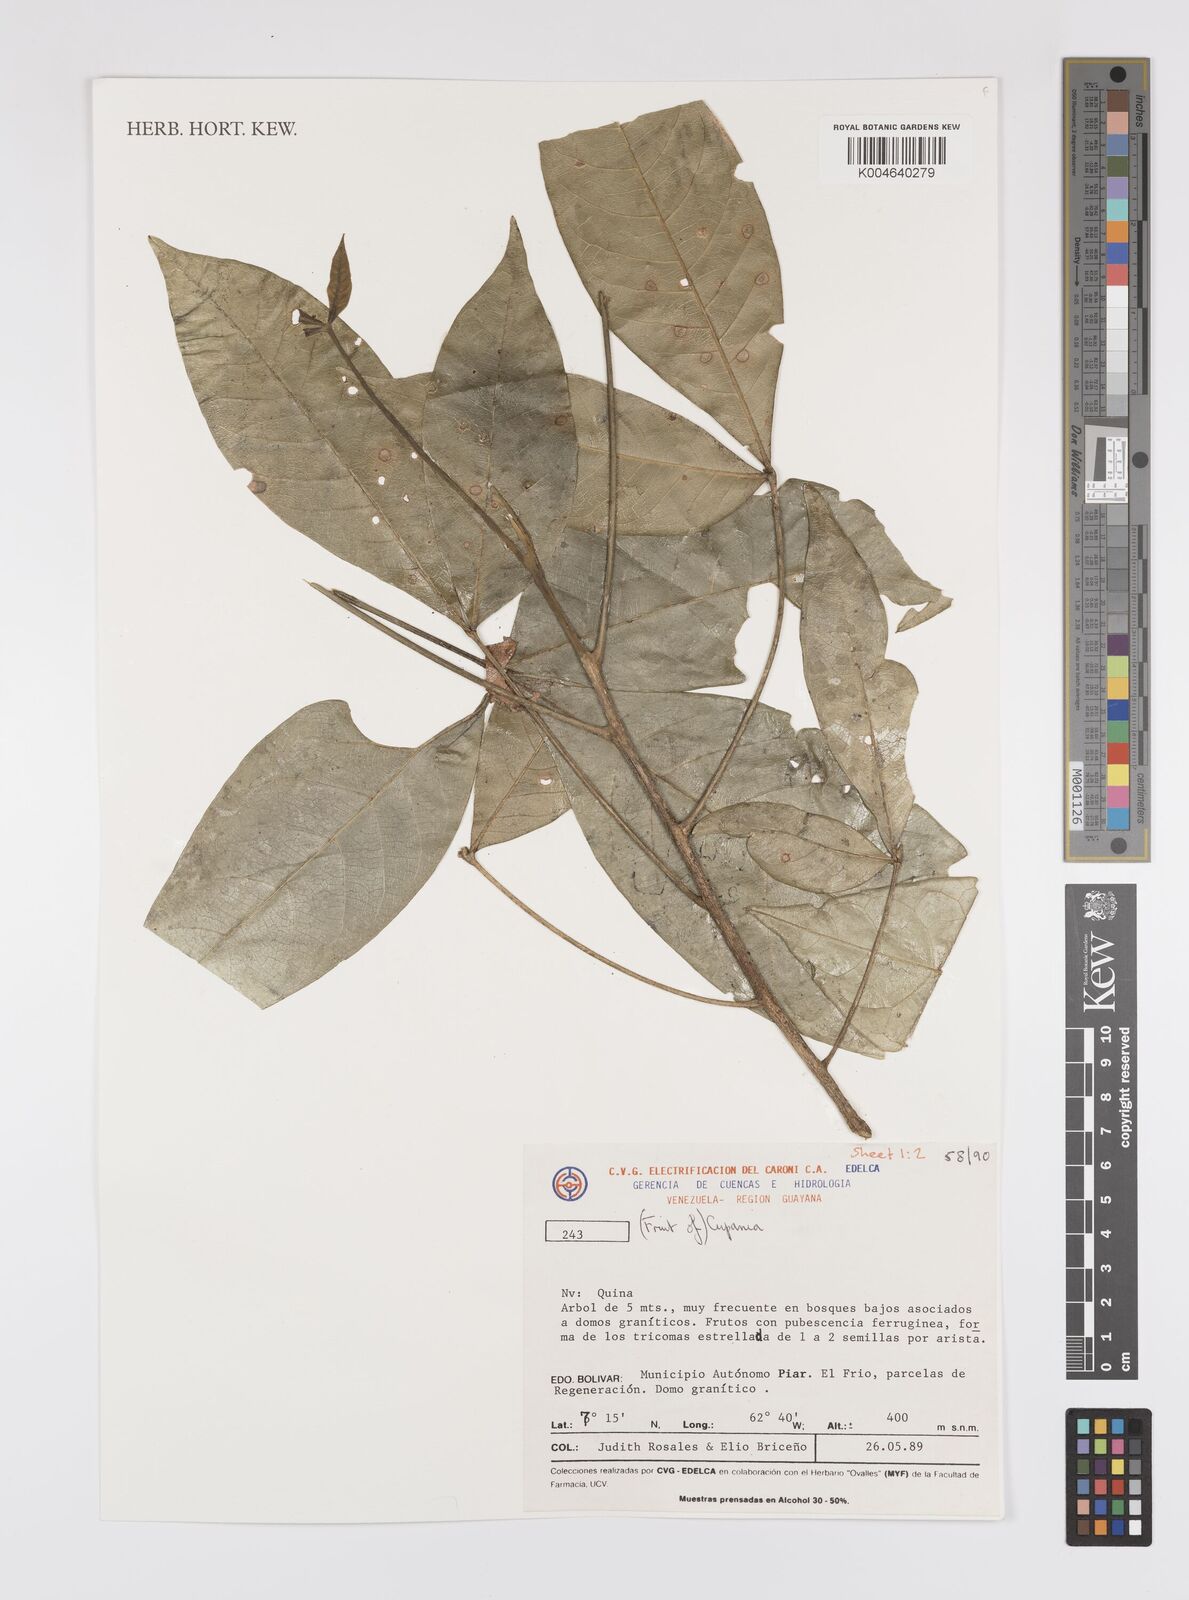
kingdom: Plantae
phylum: Tracheophyta
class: Magnoliopsida
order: Sapindales
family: Sapindaceae
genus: Cupania
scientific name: Cupania
